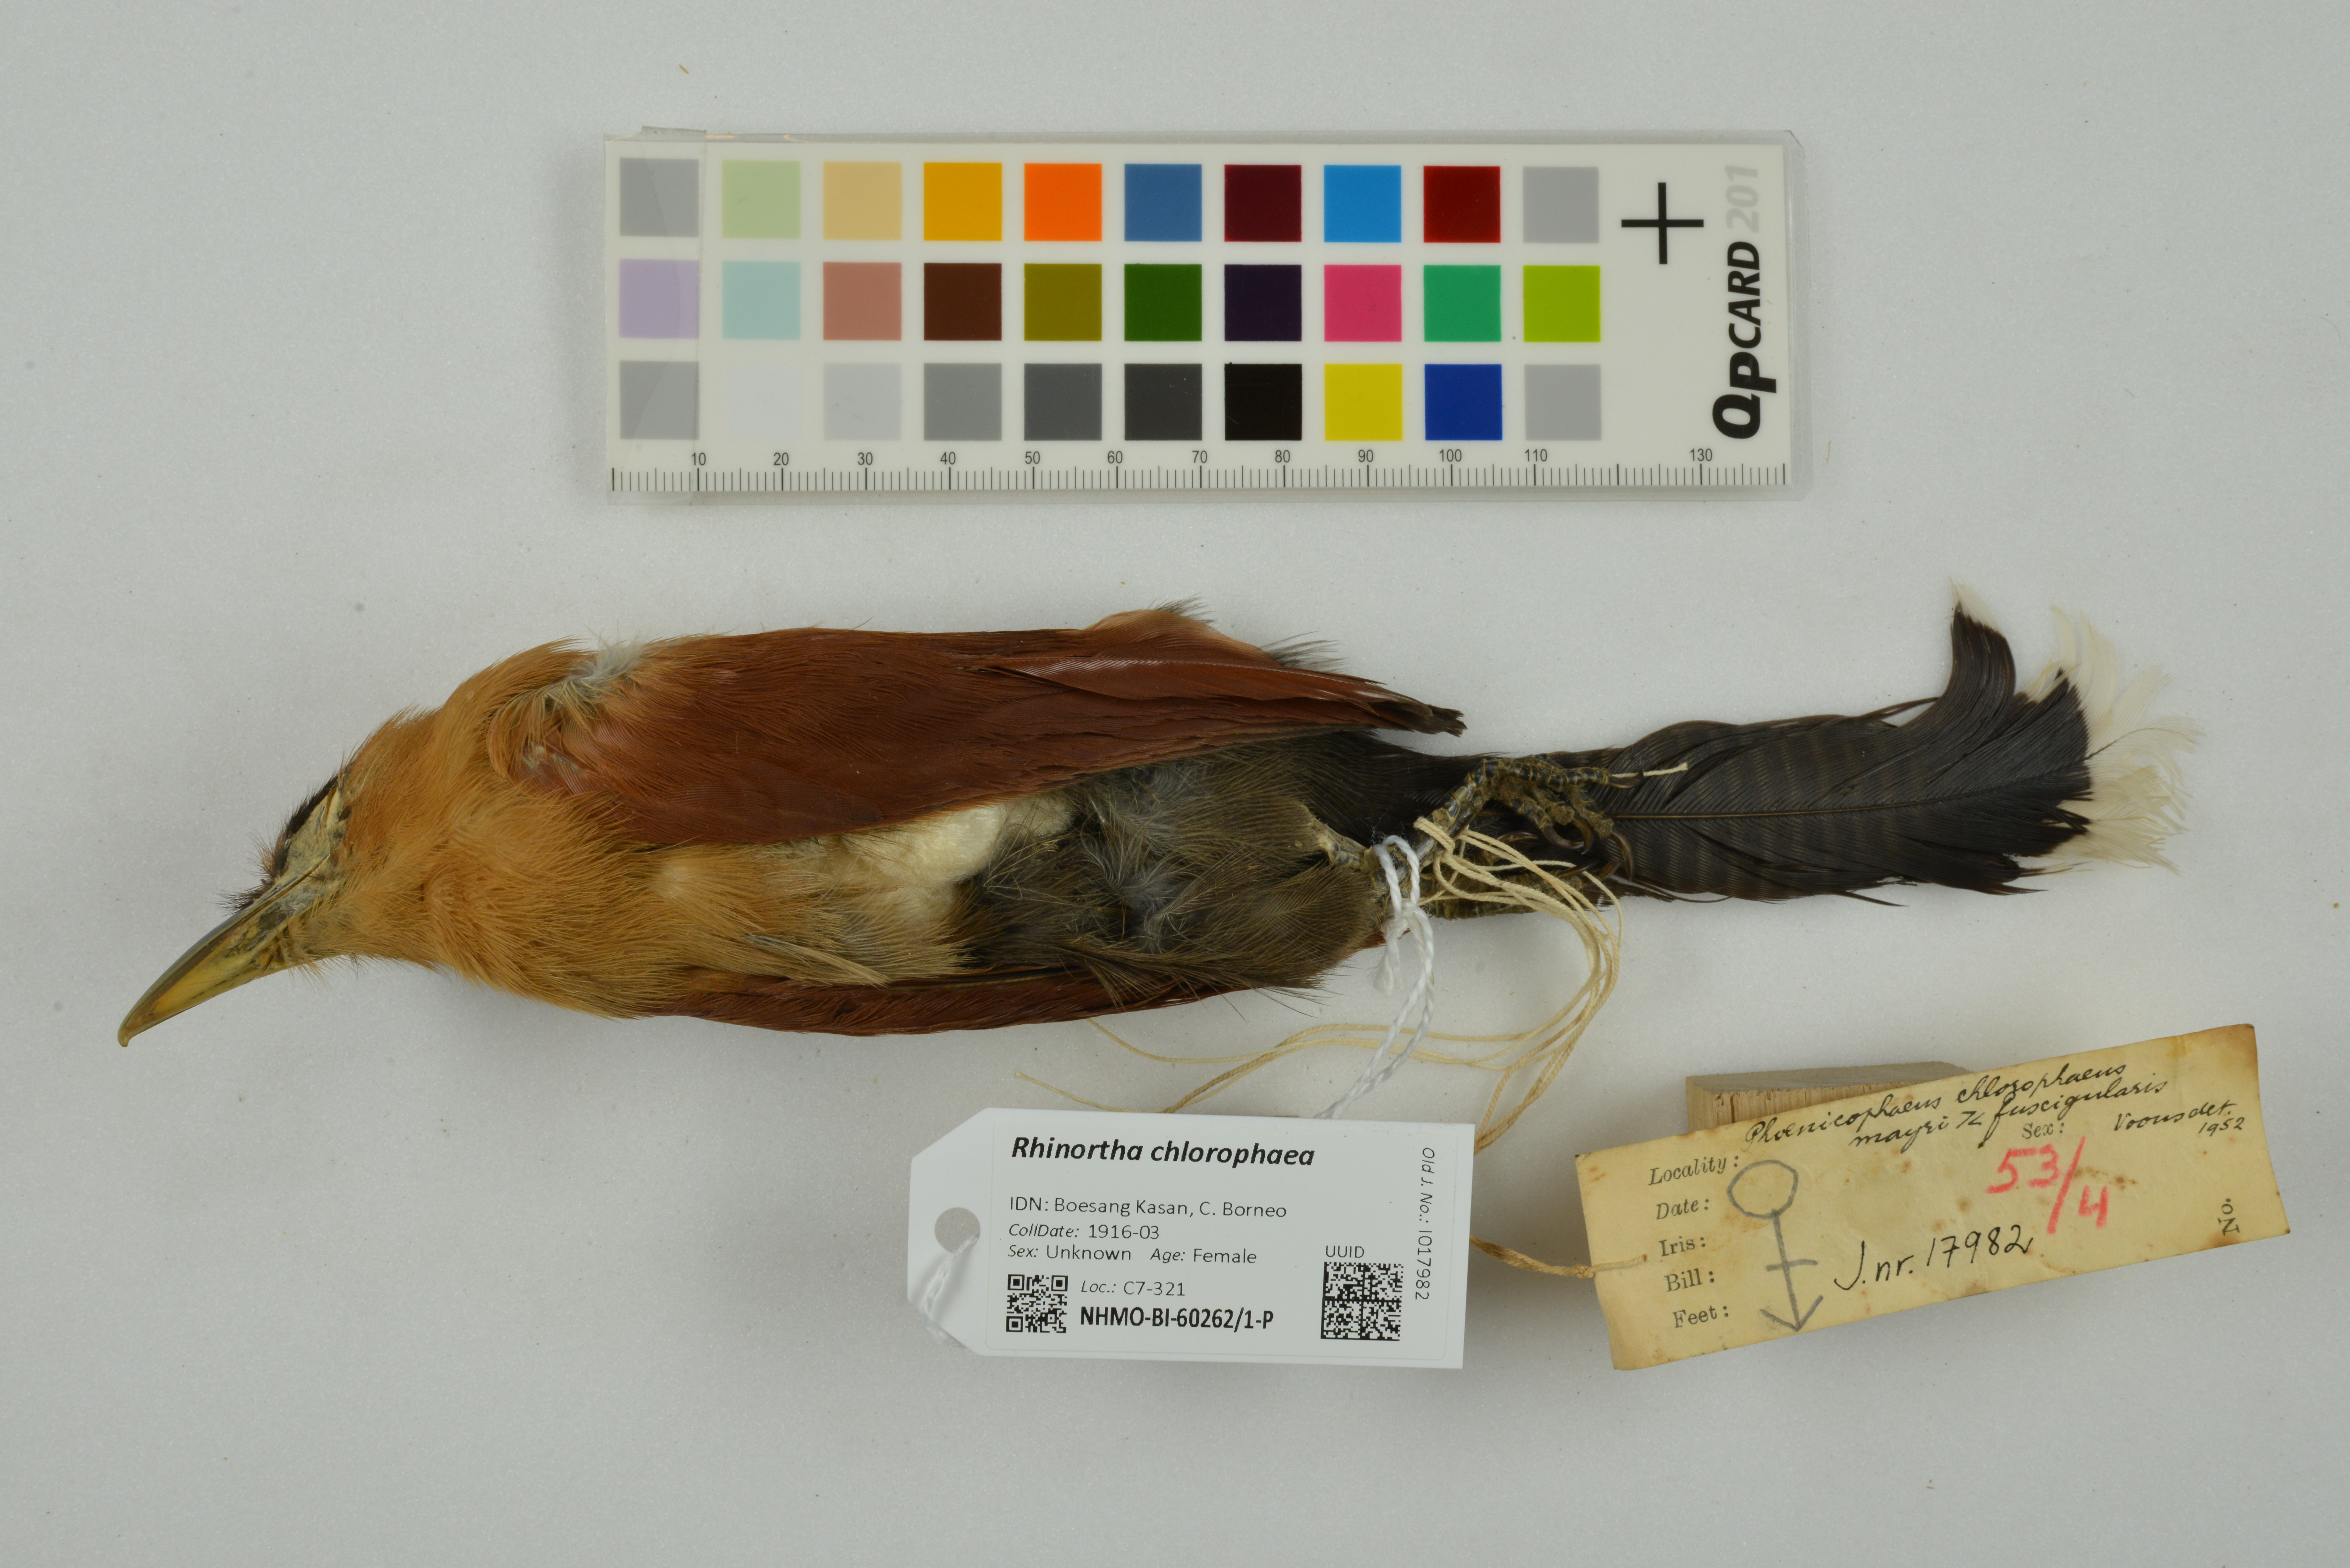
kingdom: Animalia
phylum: Chordata
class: Aves
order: Cuculiformes
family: Cuculidae
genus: Rhinortha
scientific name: Rhinortha chlorophaea
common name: Raffles's malkoha
